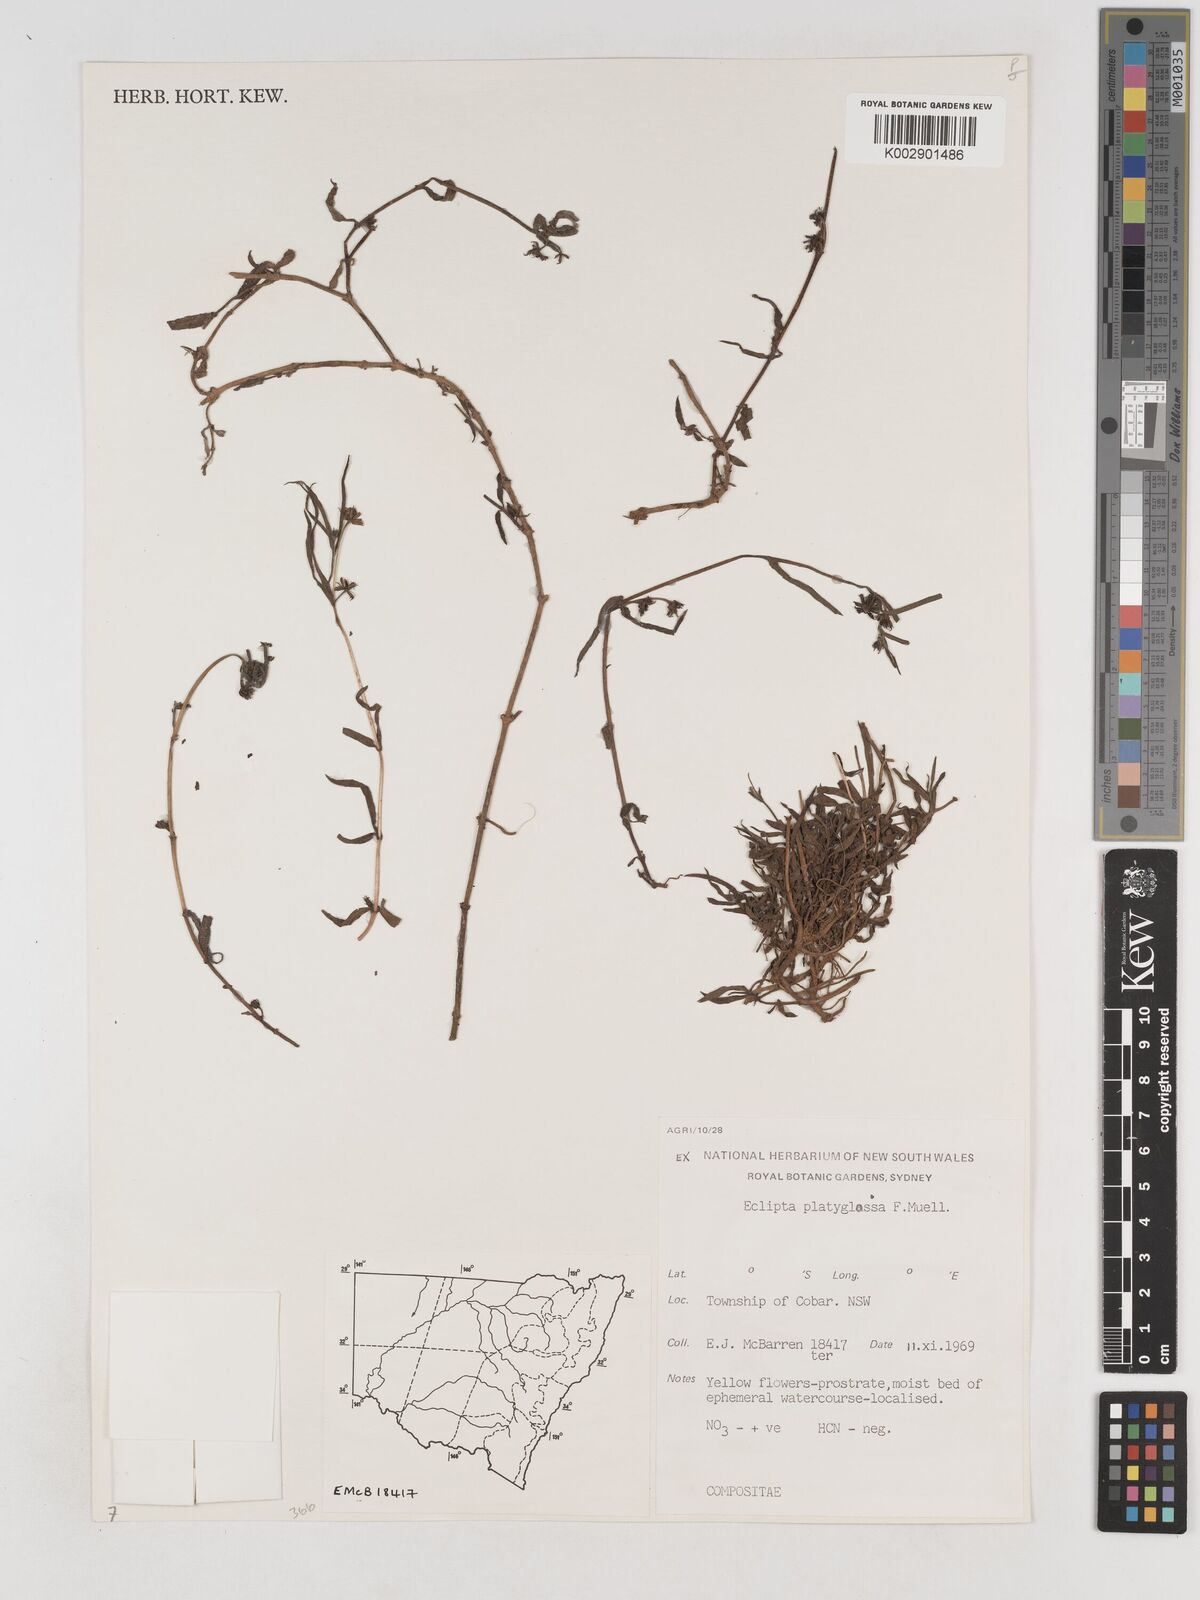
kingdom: Plantae
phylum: Tracheophyta
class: Magnoliopsida
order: Asterales
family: Asteraceae
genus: Eclipta
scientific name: Eclipta platyglossa
